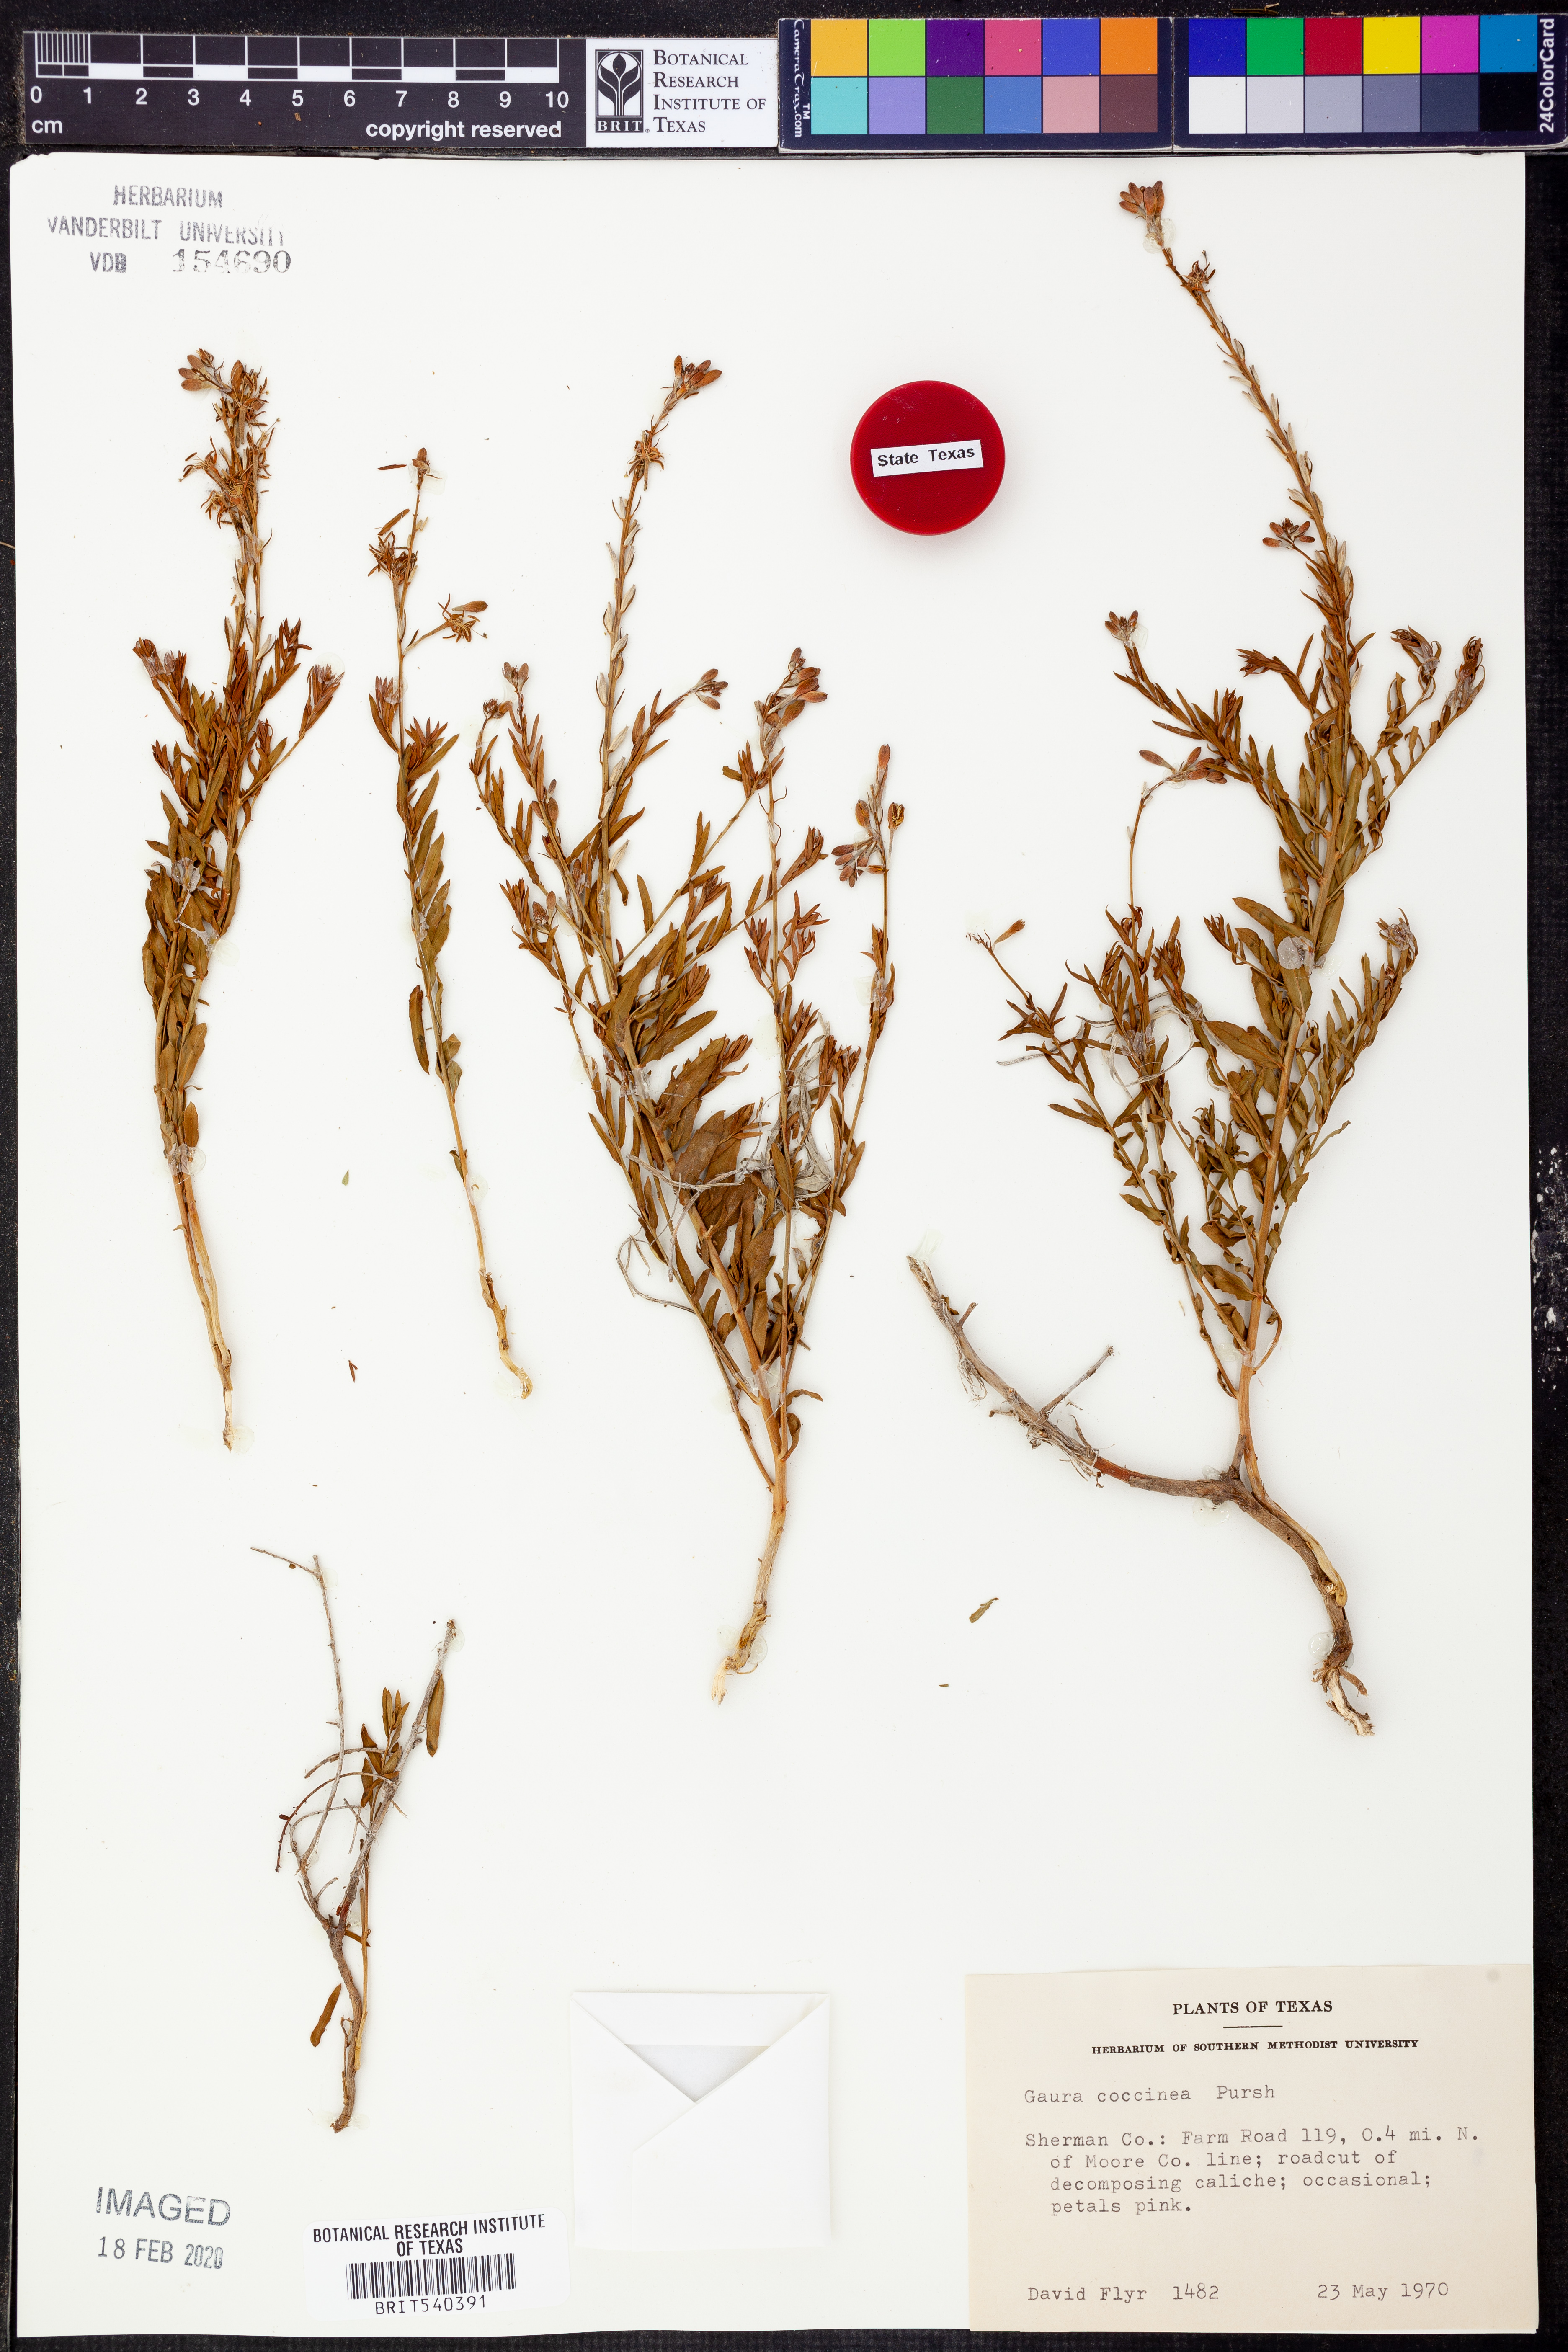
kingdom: Plantae
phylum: Tracheophyta
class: Magnoliopsida
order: Myrtales
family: Onagraceae
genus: Oenothera
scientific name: Oenothera suffrutescens
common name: Scarlet beeblossom
